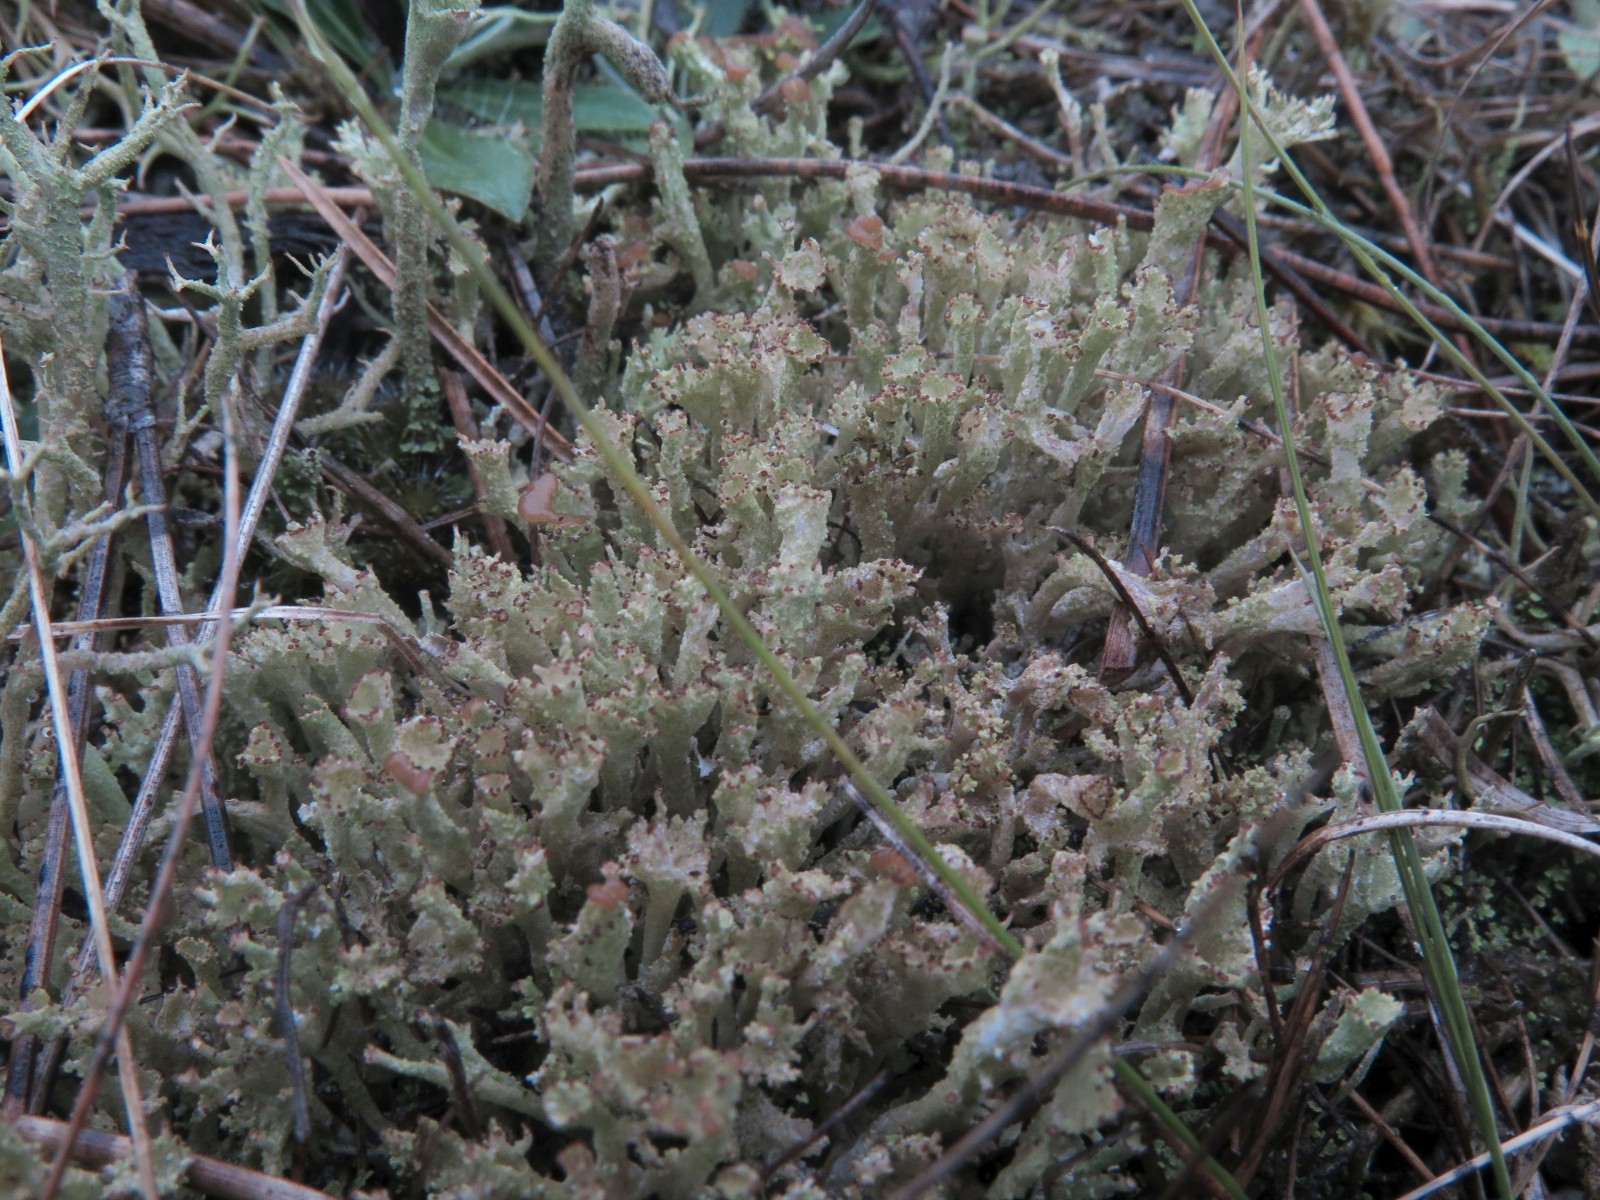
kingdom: Fungi
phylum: Ascomycota
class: Lecanoromycetes
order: Lecanorales
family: Cladoniaceae
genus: Cladonia
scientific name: Cladonia ramulosa
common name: kliddet bægerlav
